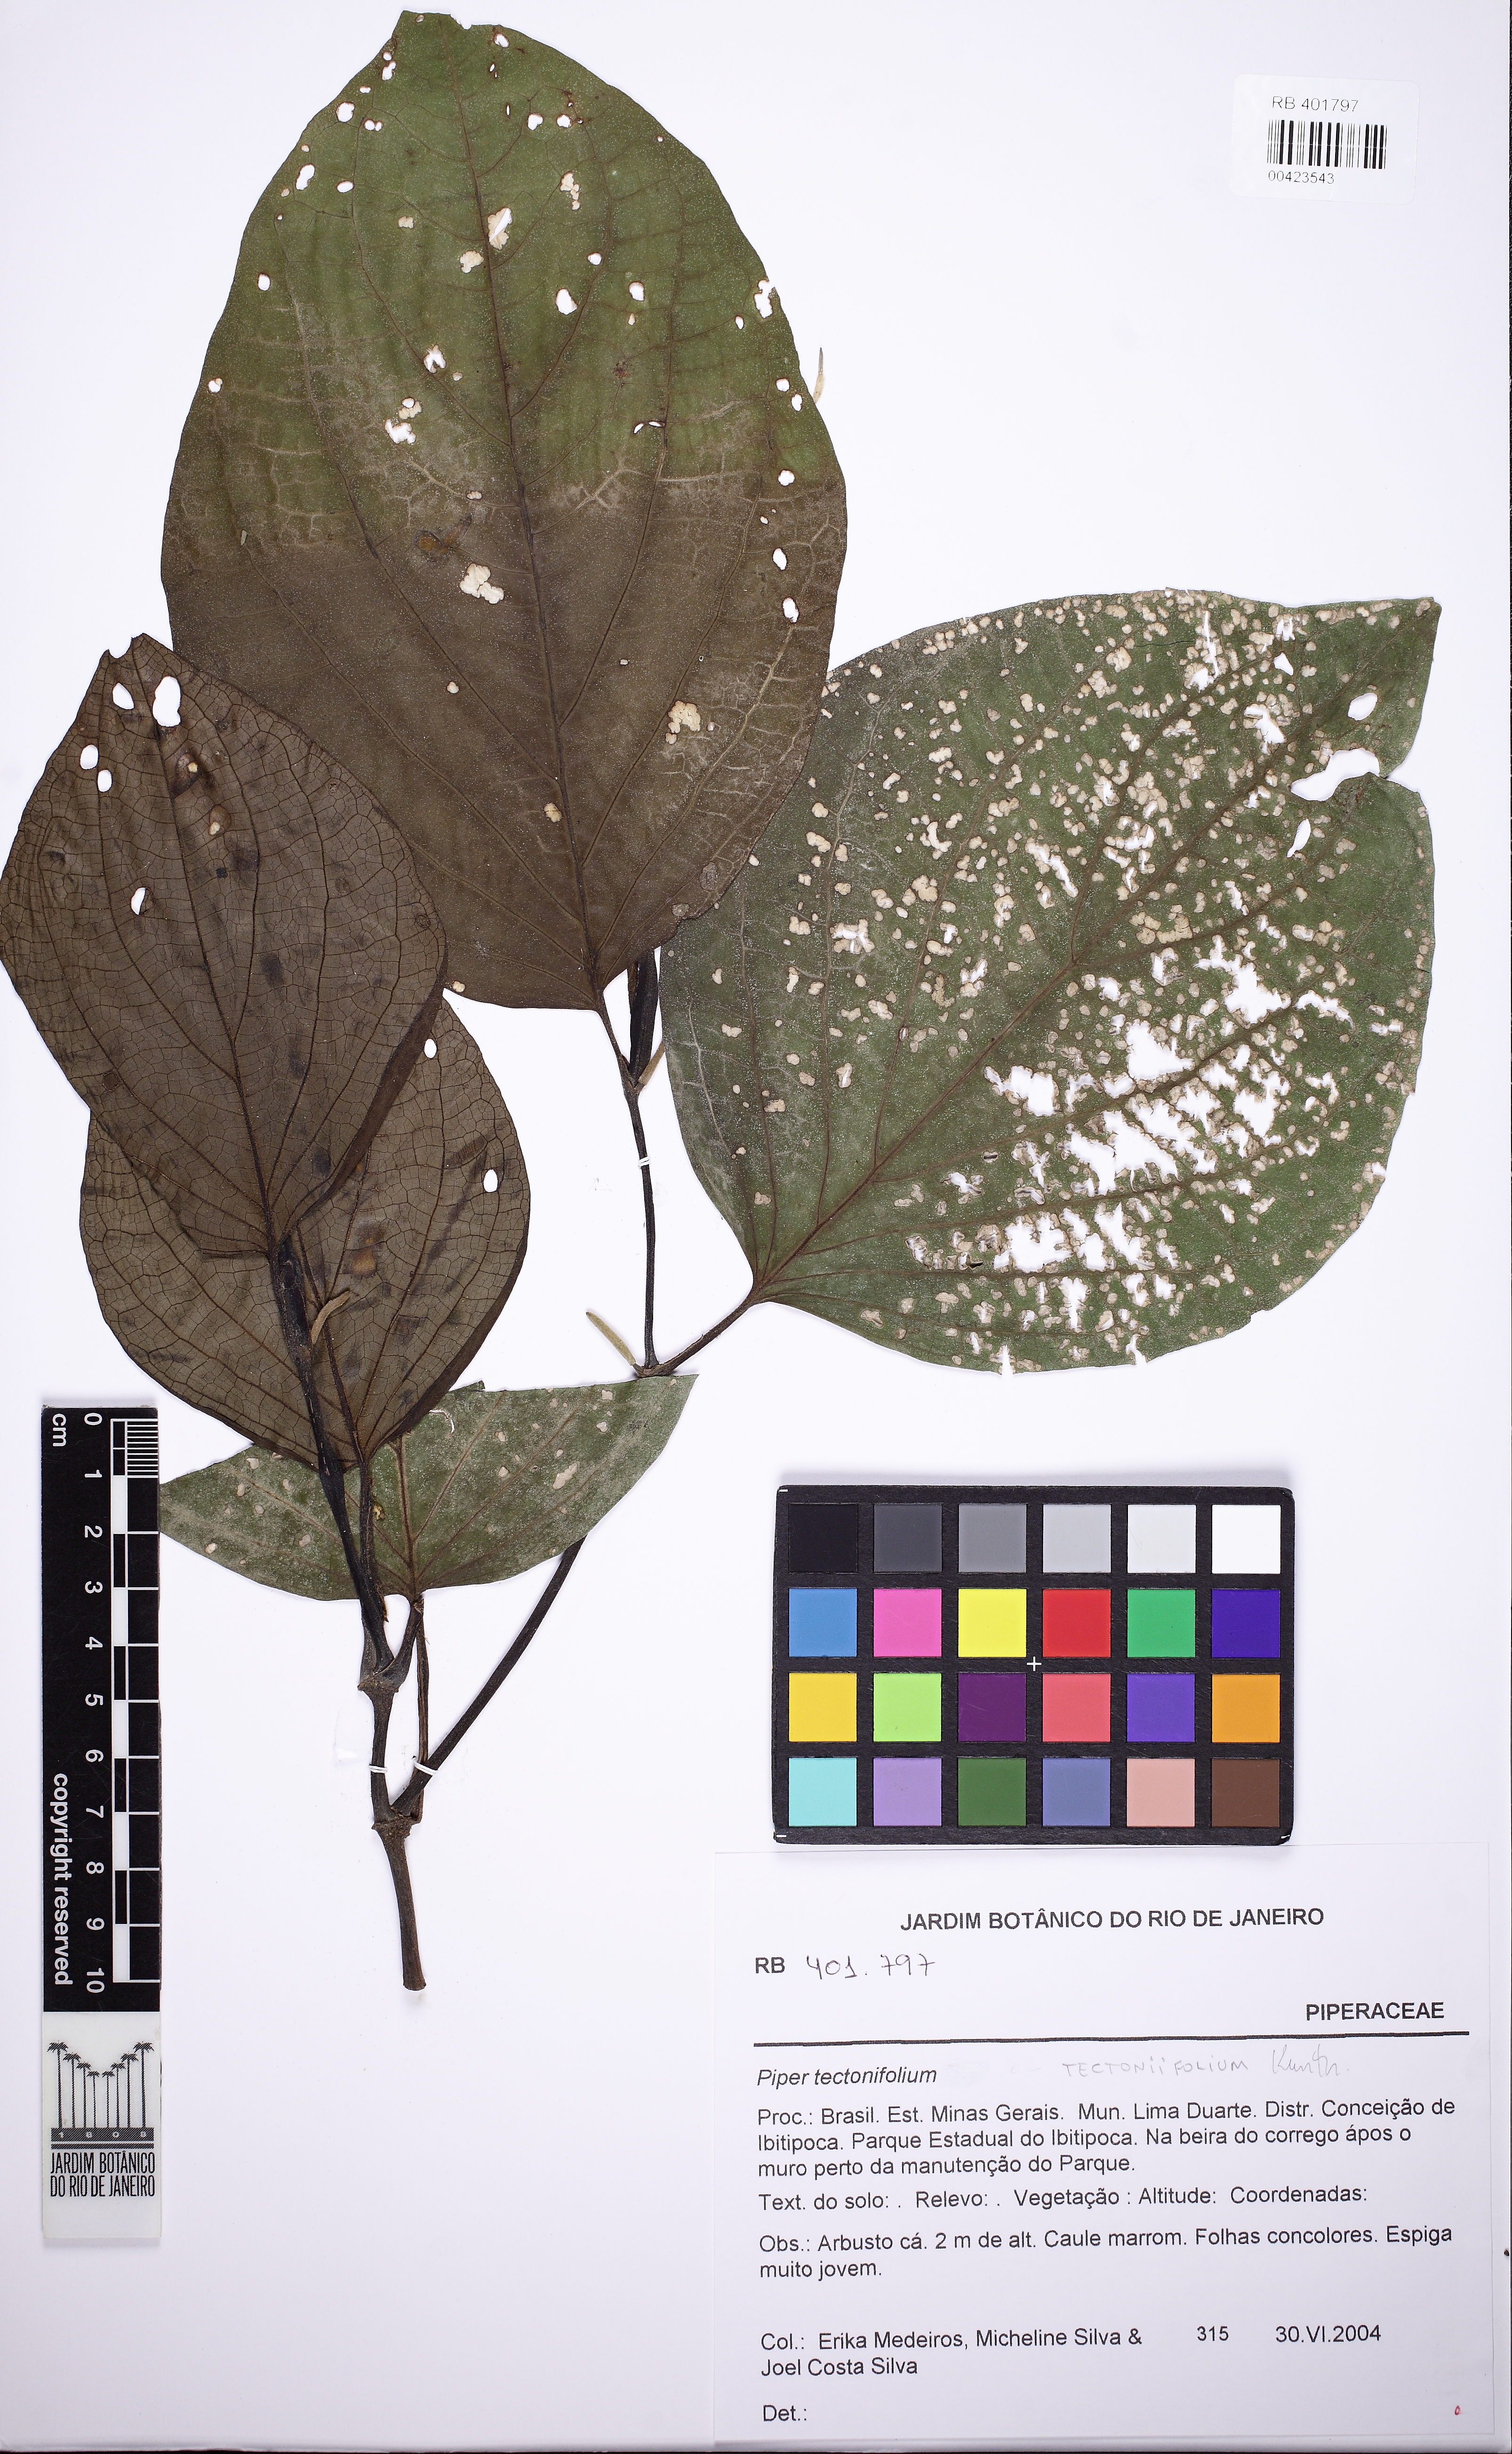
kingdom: Plantae
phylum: Tracheophyta
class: Magnoliopsida
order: Piperales
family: Piperaceae
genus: Piper
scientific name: Piper tectoniifolium
